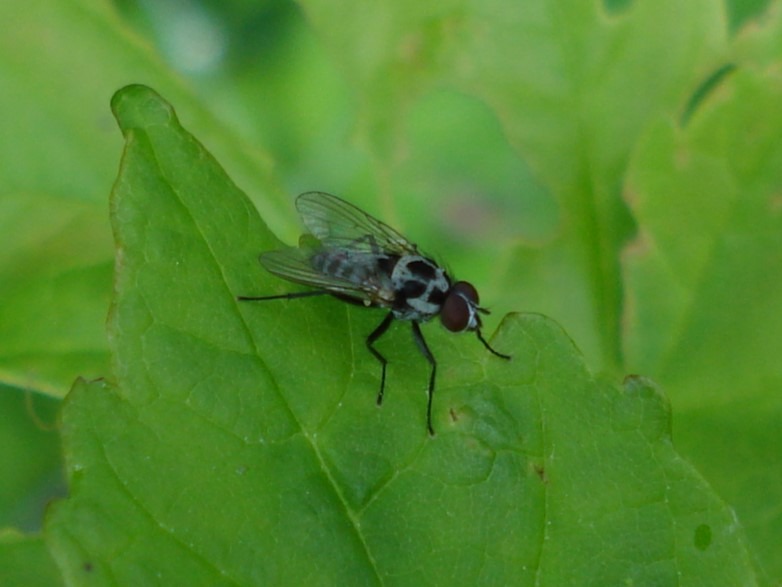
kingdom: Animalia
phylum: Arthropoda
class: Insecta
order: Diptera
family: Anthomyiidae
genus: Anthomyia
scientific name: Anthomyia procellaris
